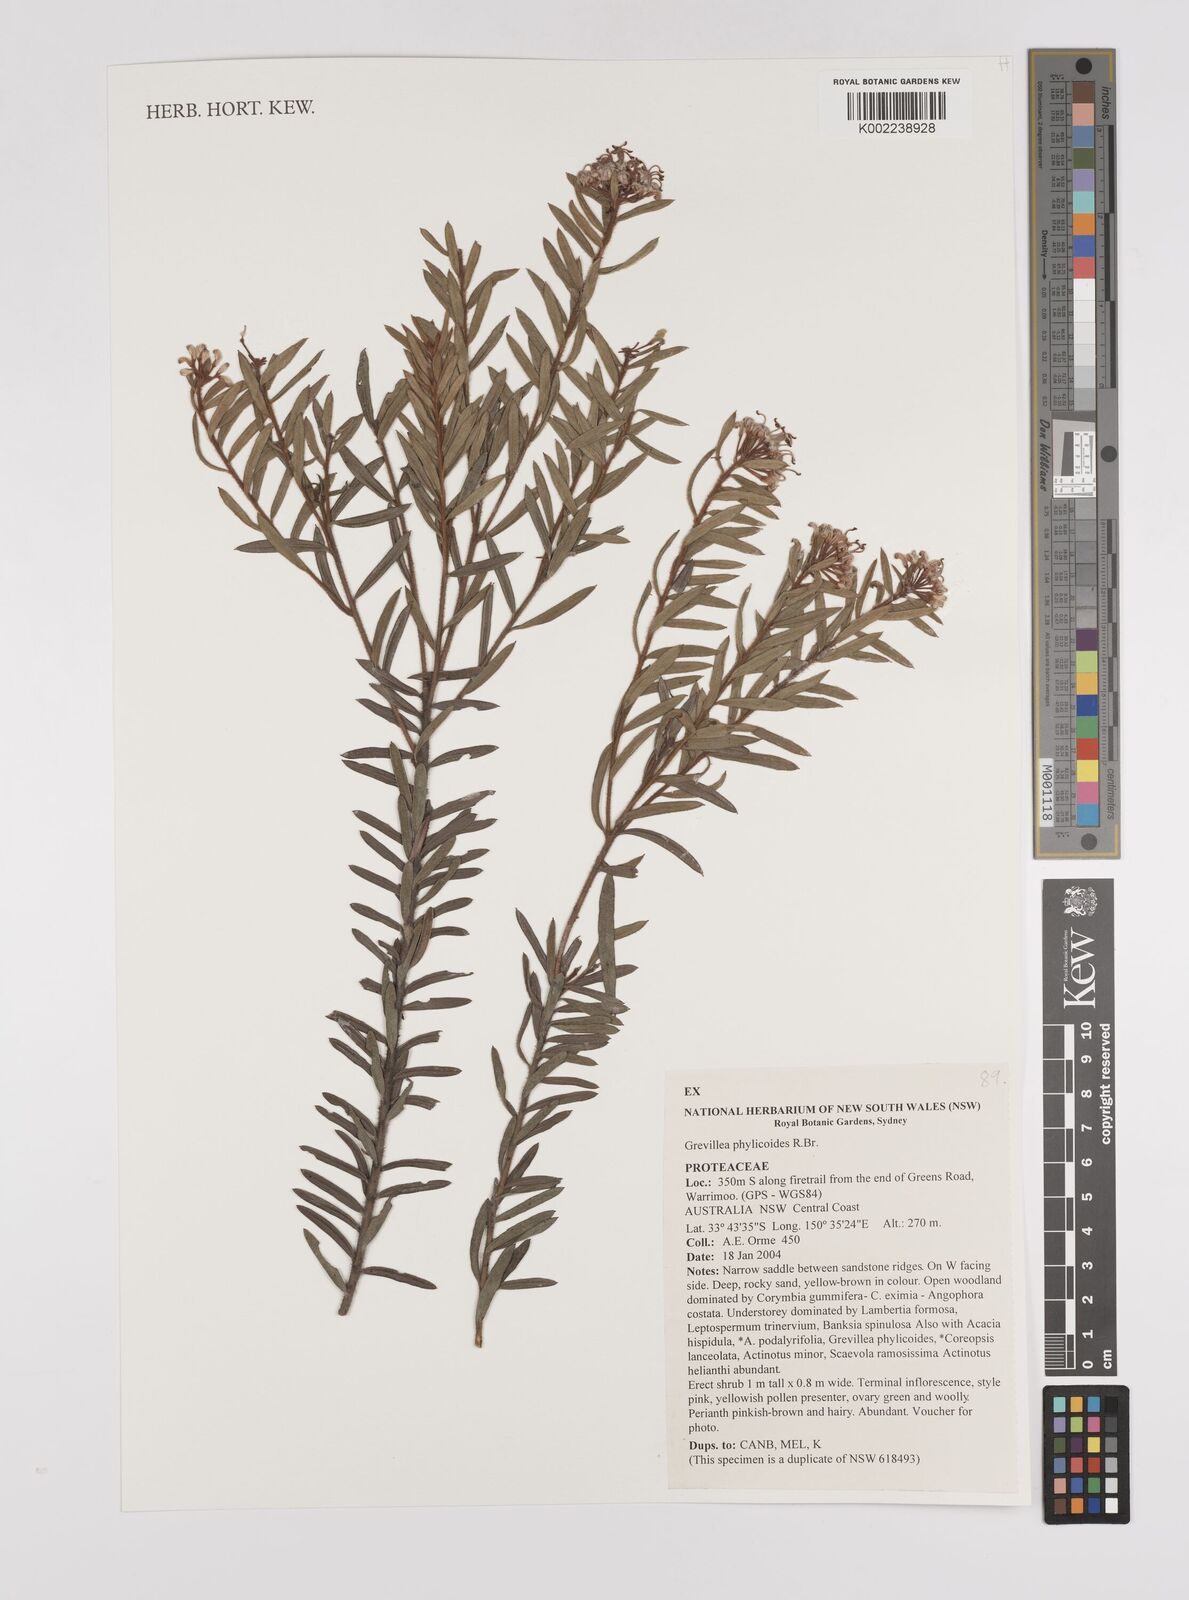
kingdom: Plantae
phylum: Tracheophyta
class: Magnoliopsida
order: Proteales
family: Proteaceae
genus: Grevillea
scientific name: Grevillea phylicoides
